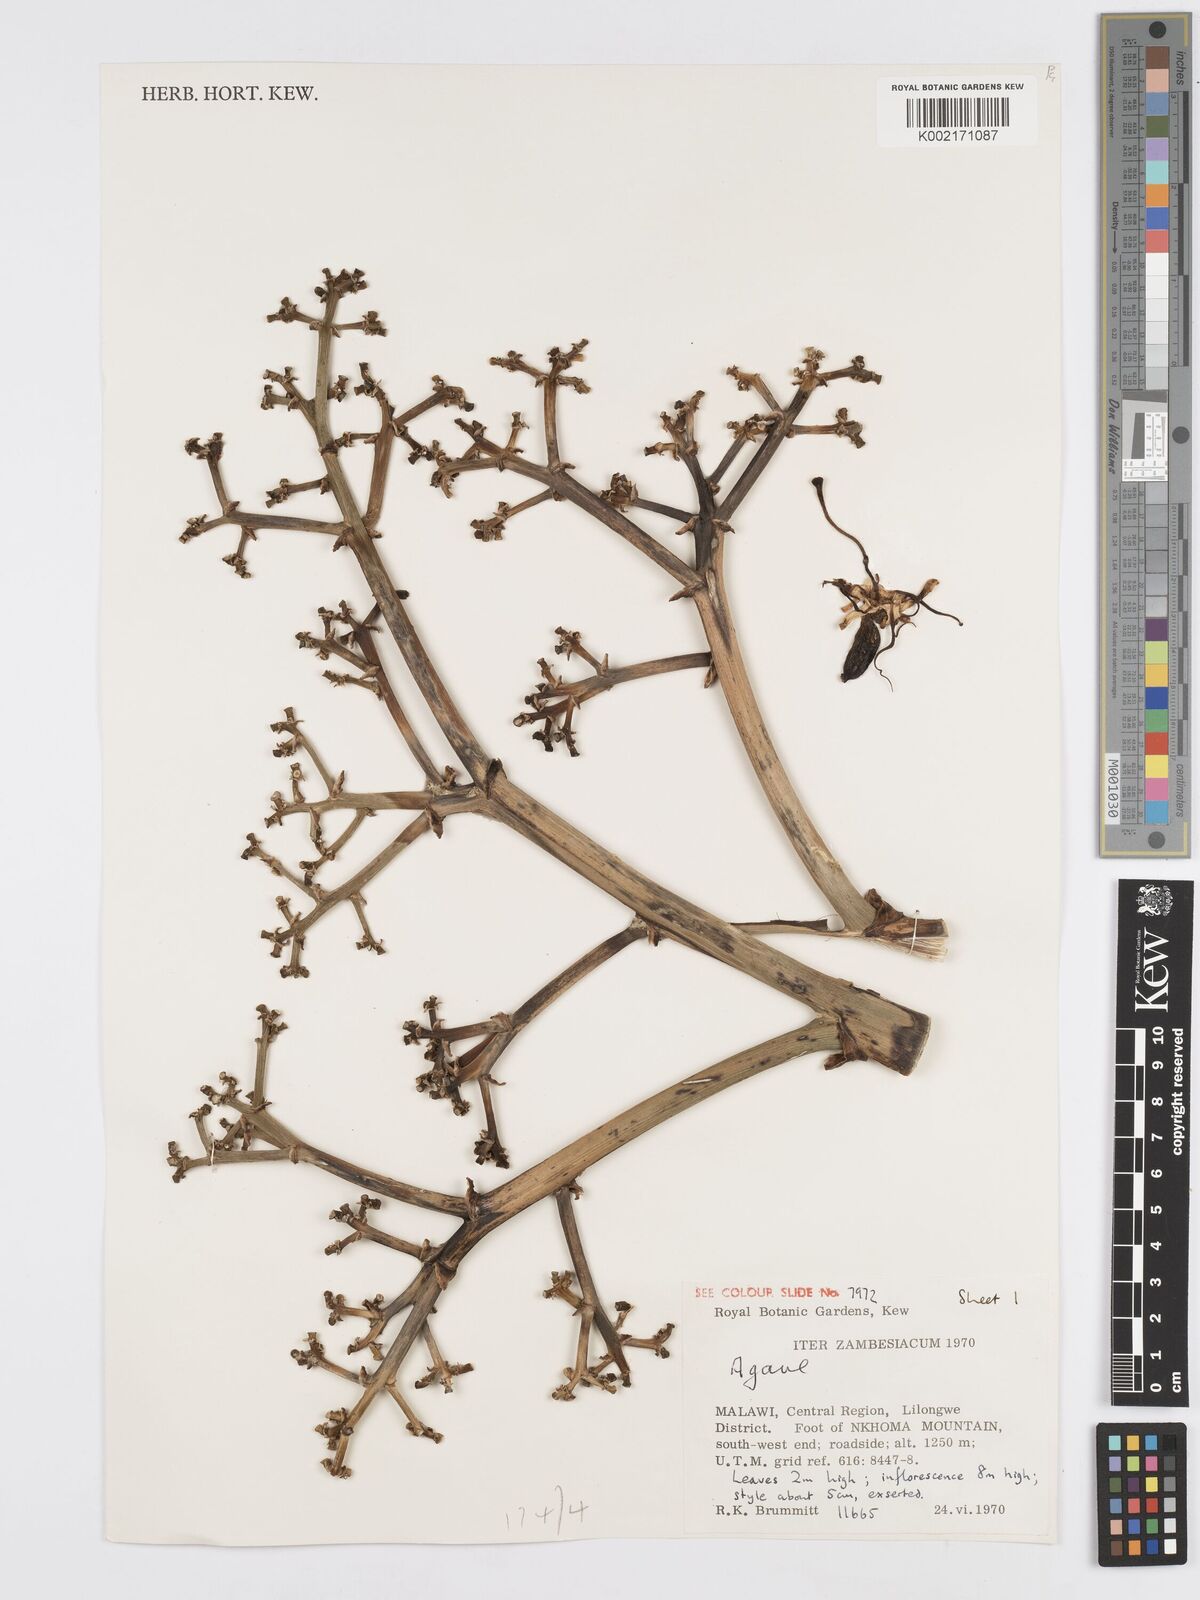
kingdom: Plantae
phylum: Tracheophyta
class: Liliopsida
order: Asparagales
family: Asparagaceae
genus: Agave
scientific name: Agave
